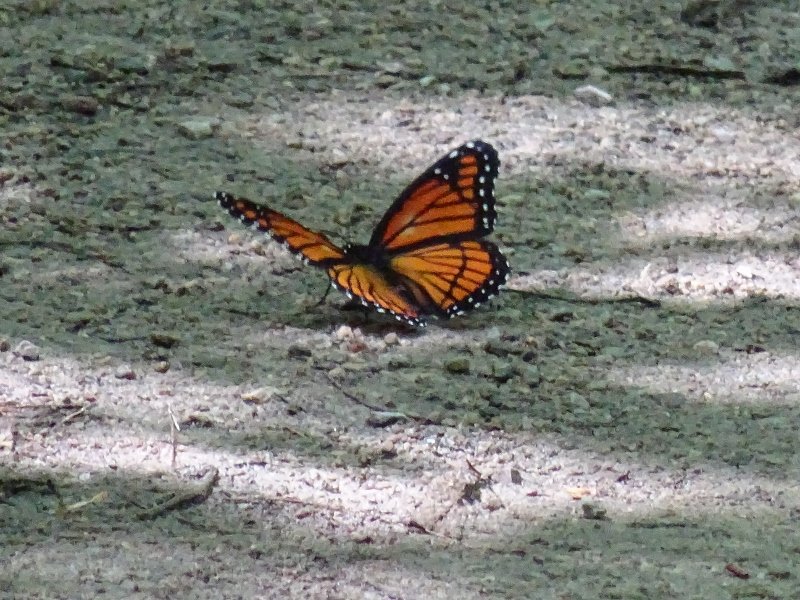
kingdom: Animalia
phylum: Arthropoda
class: Insecta
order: Lepidoptera
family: Nymphalidae
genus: Limenitis
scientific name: Limenitis archippus
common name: Viceroy
